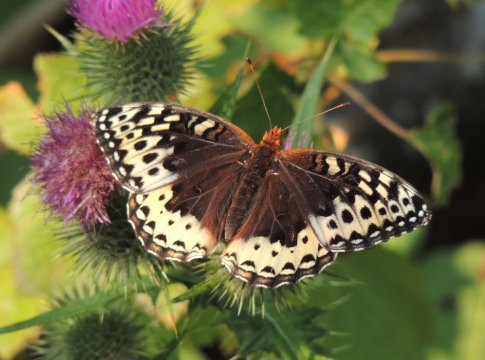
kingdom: Animalia
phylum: Arthropoda
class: Insecta
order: Lepidoptera
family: Nymphalidae
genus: Speyeria
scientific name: Speyeria cybele
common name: Great Spangled Fritillary
